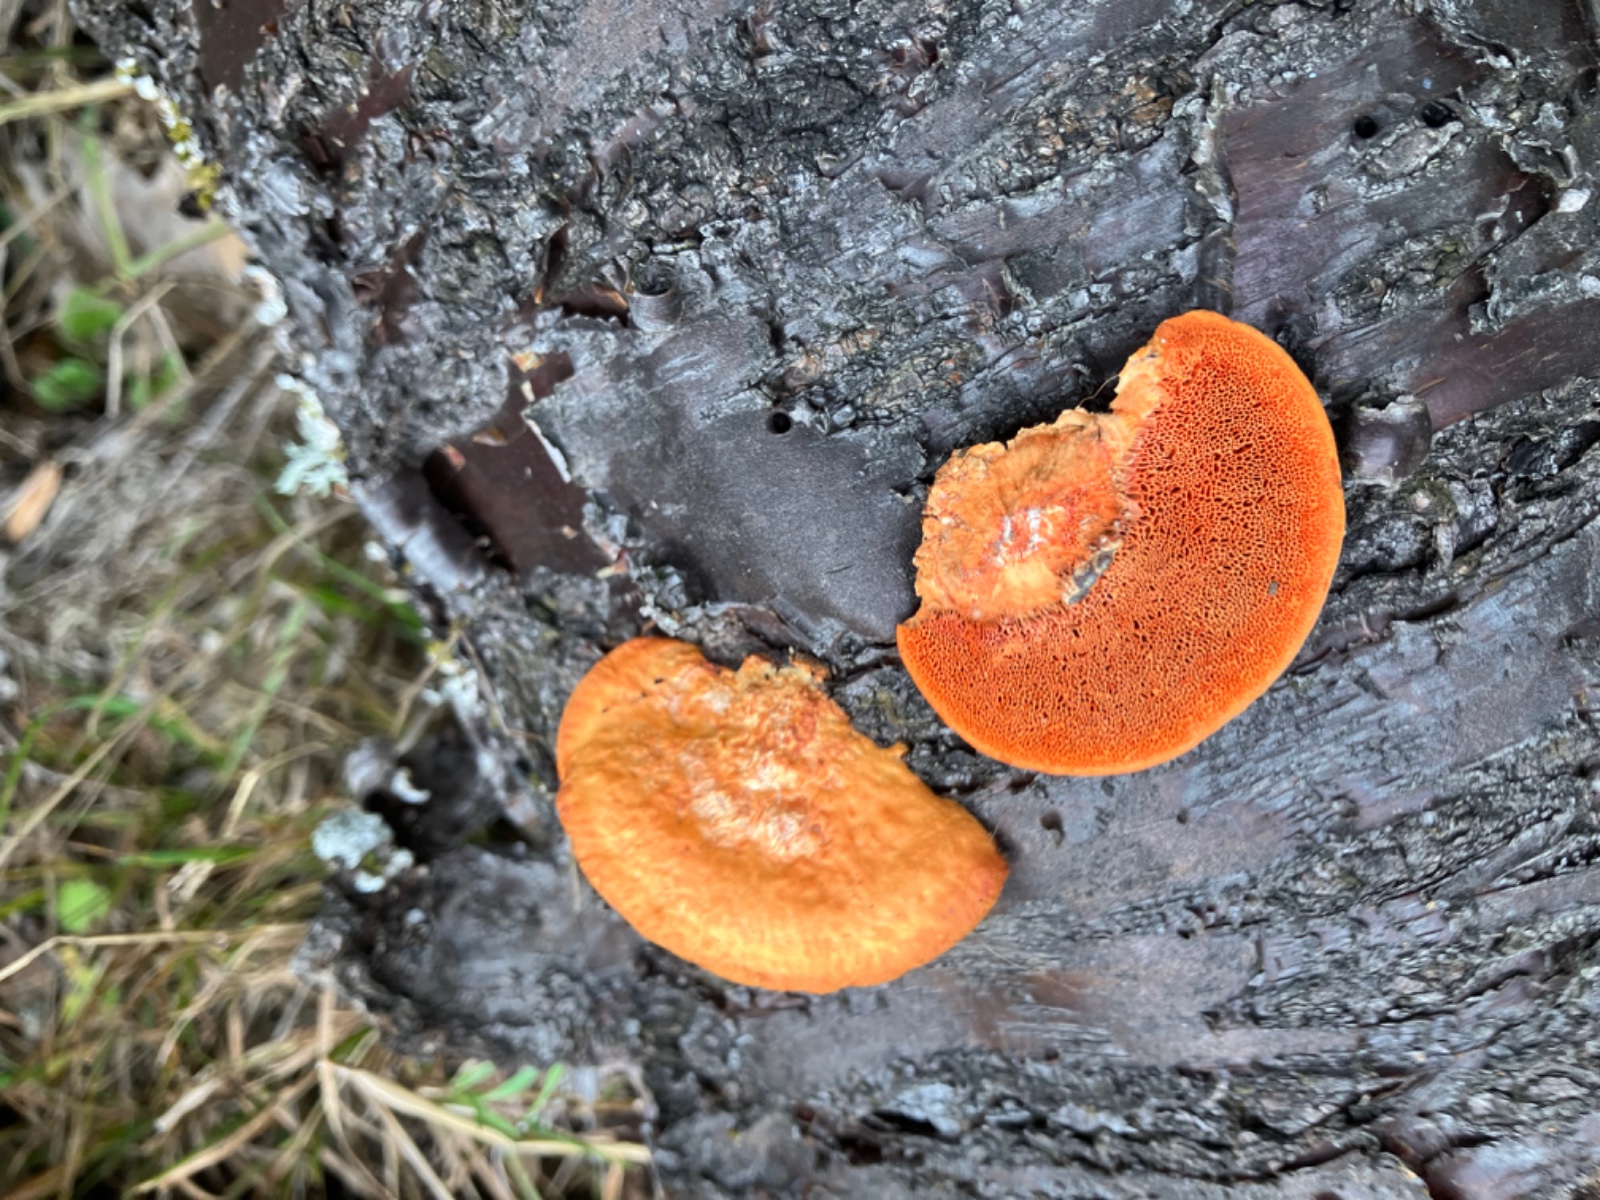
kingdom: Fungi
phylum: Basidiomycota
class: Agaricomycetes
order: Polyporales
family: Polyporaceae
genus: Trametes
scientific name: Trametes cinnabarina
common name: cinnoberporesvamp
